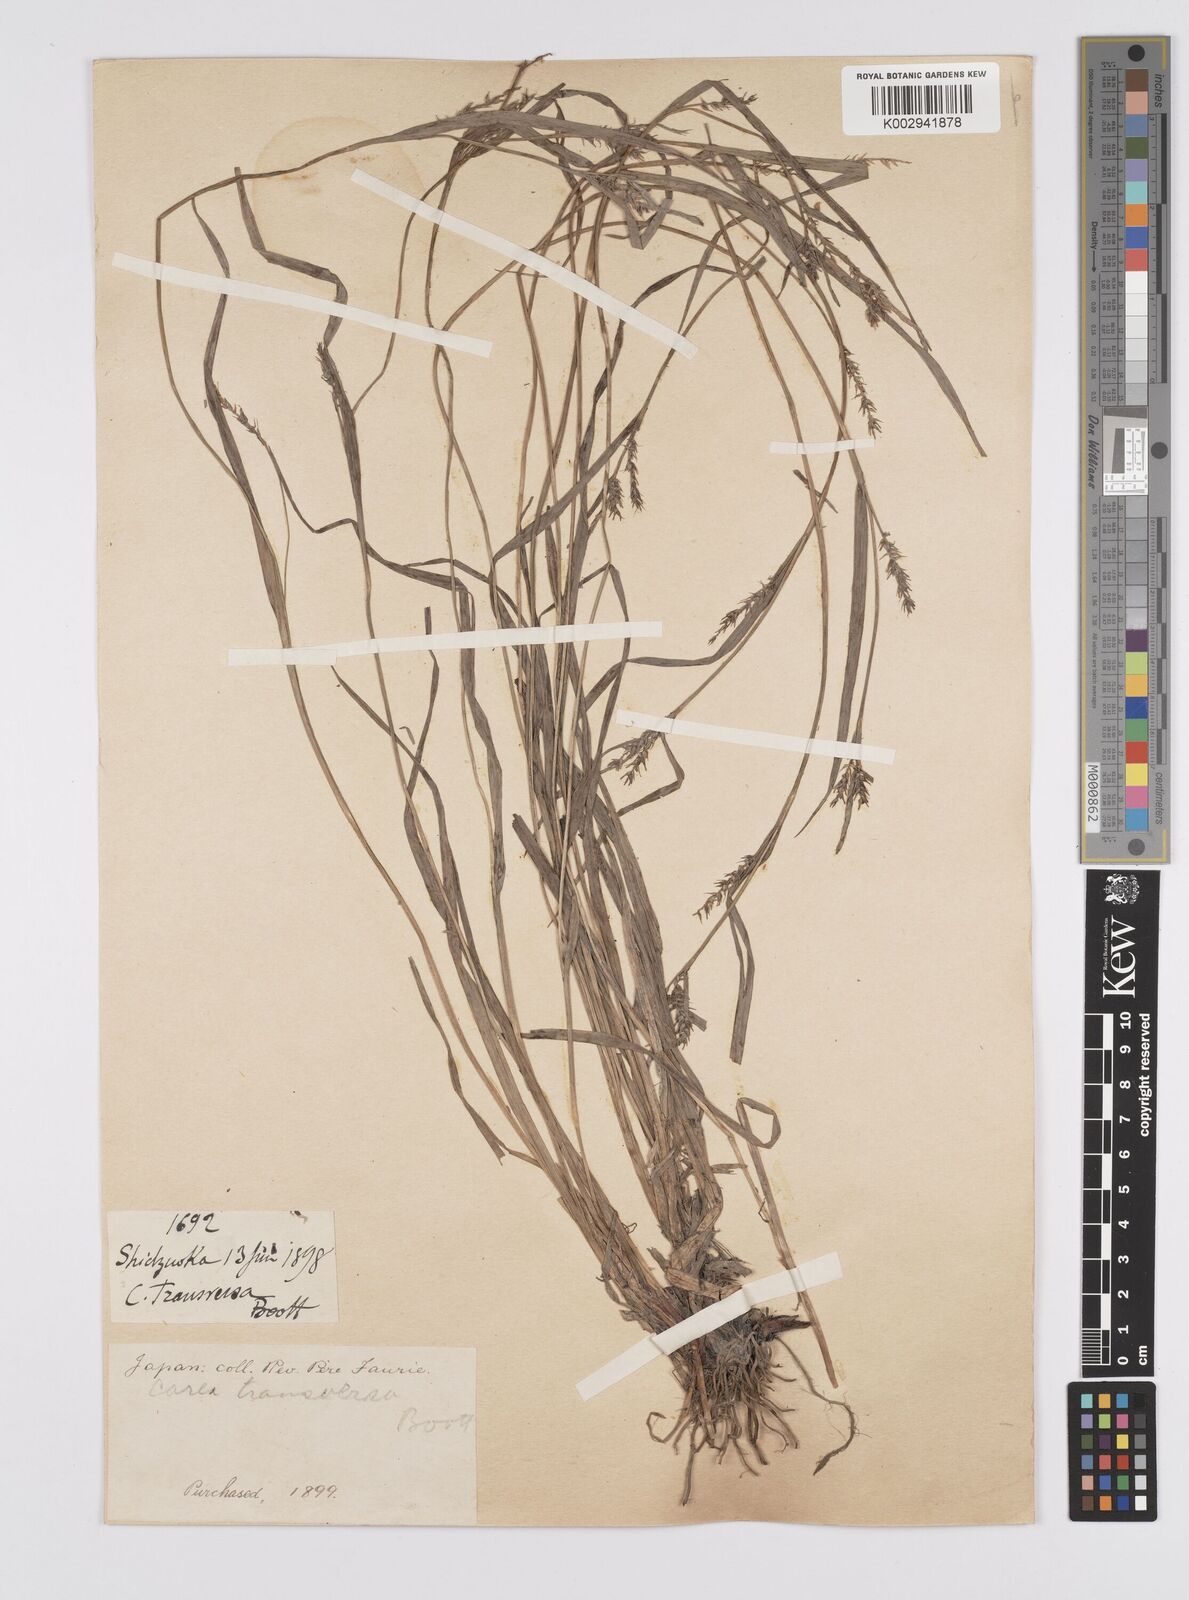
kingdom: Plantae
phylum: Tracheophyta
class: Liliopsida
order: Poales
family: Cyperaceae
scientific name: Cyperaceae
